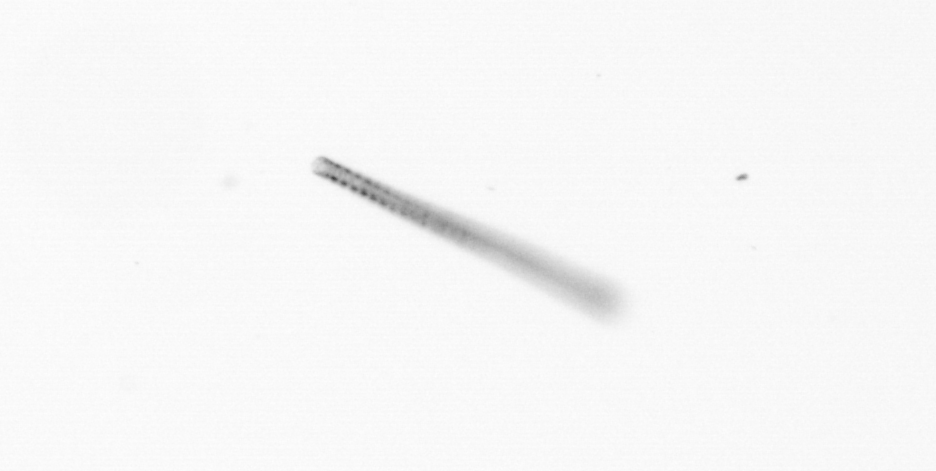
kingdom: Chromista
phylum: Ochrophyta
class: Bacillariophyceae
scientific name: Bacillariophyceae
